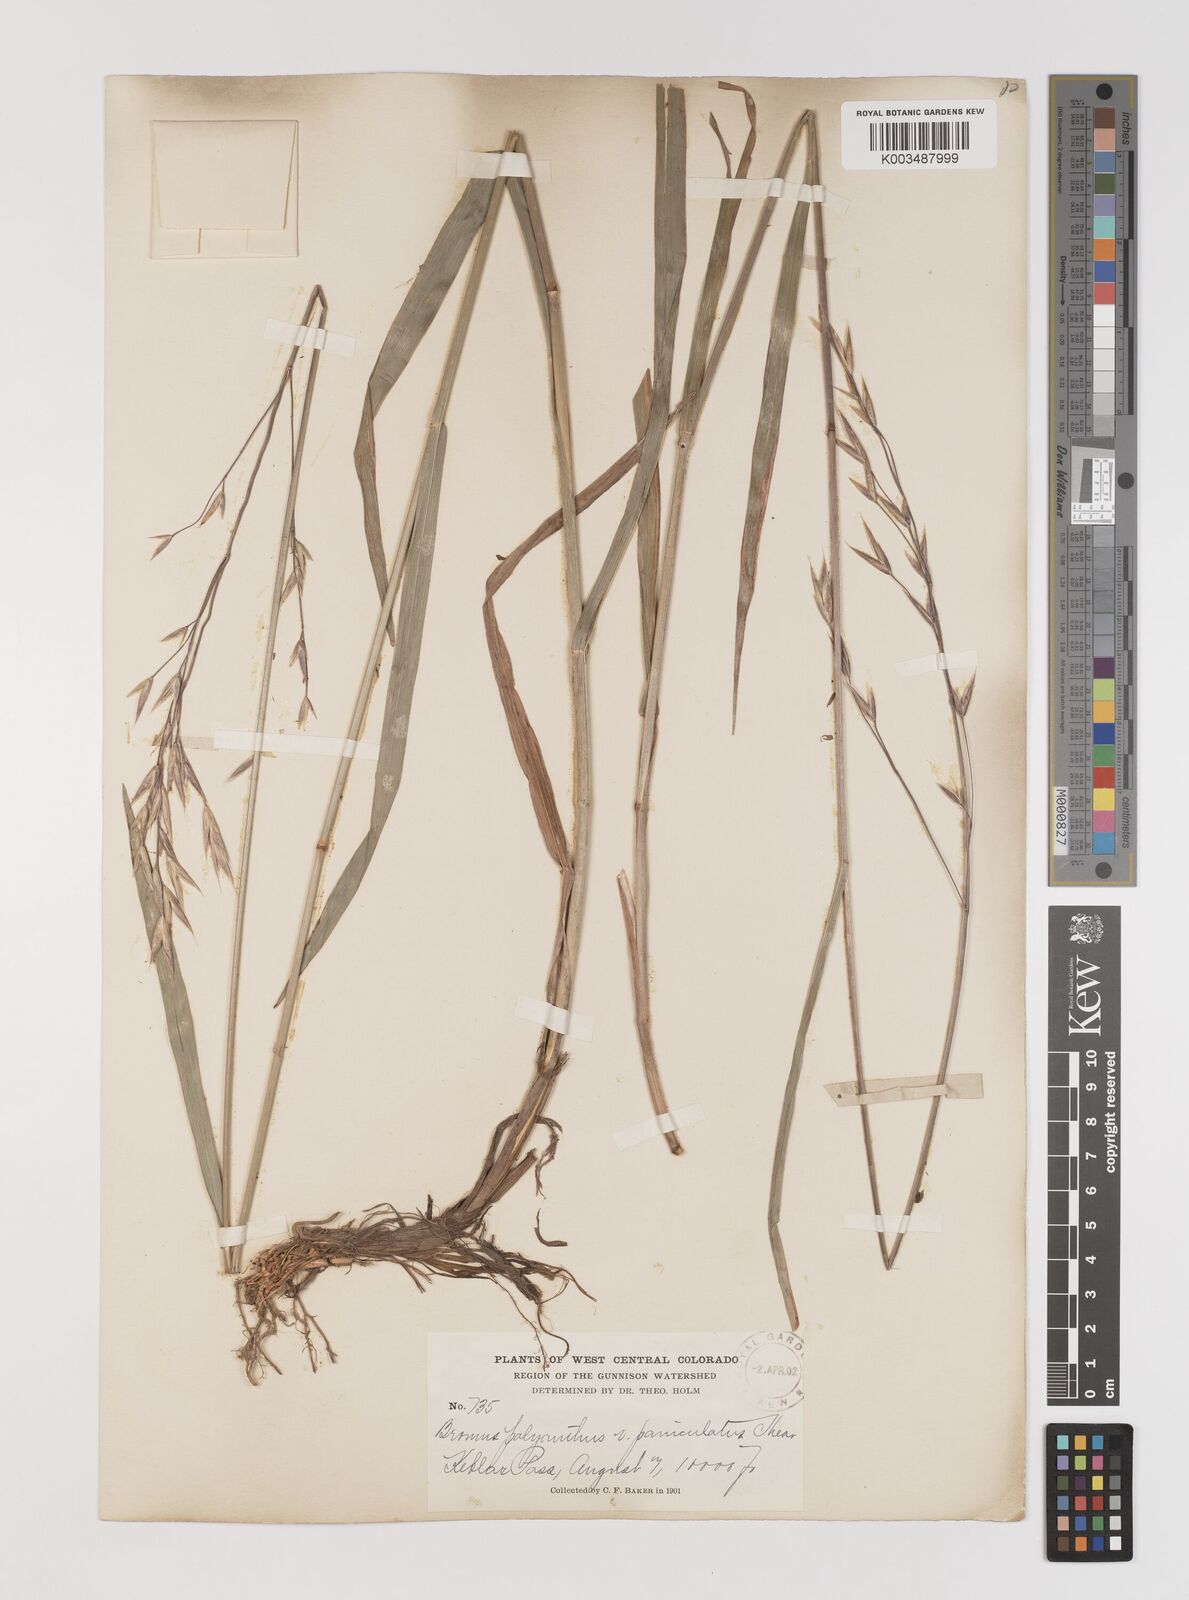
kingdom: Plantae
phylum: Tracheophyta
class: Liliopsida
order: Poales
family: Poaceae
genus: Bromus
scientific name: Bromus polyanthus
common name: Great basin brome
